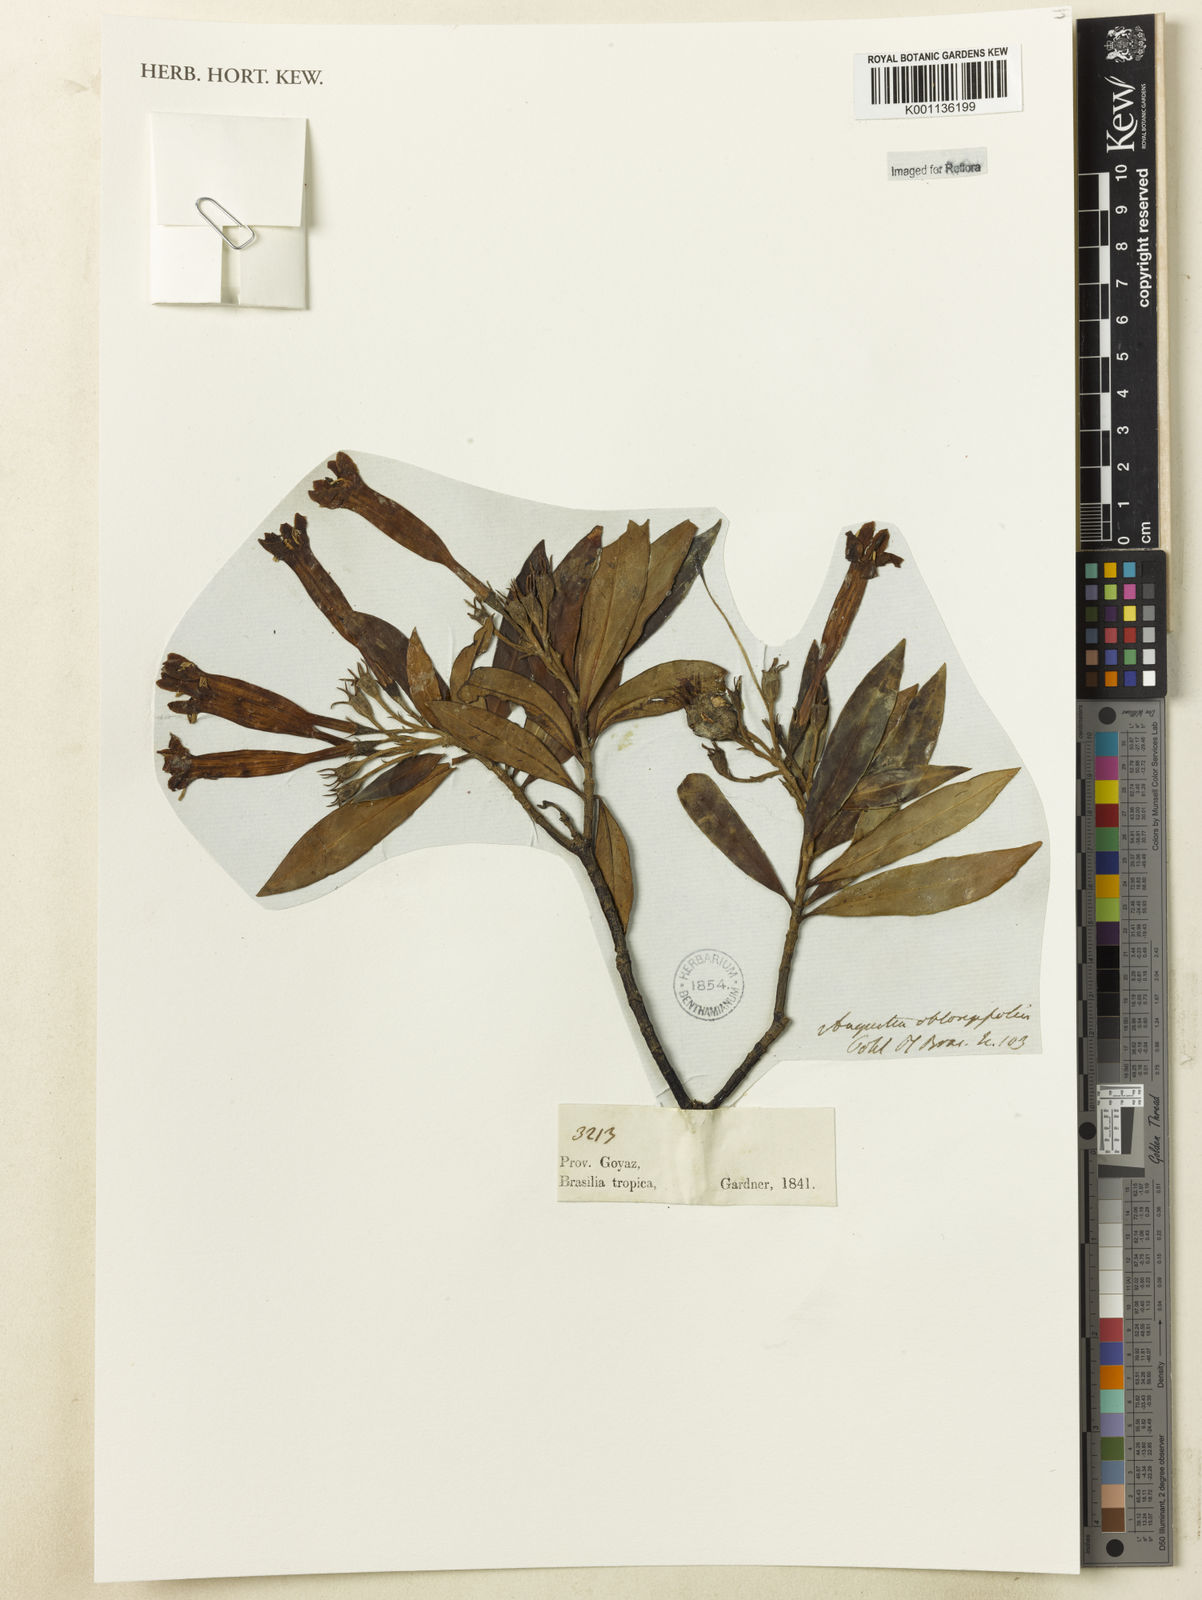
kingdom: Plantae
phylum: Tracheophyta
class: Magnoliopsida
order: Gentianales
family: Rubiaceae
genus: Augusta
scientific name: Augusta longifolia
